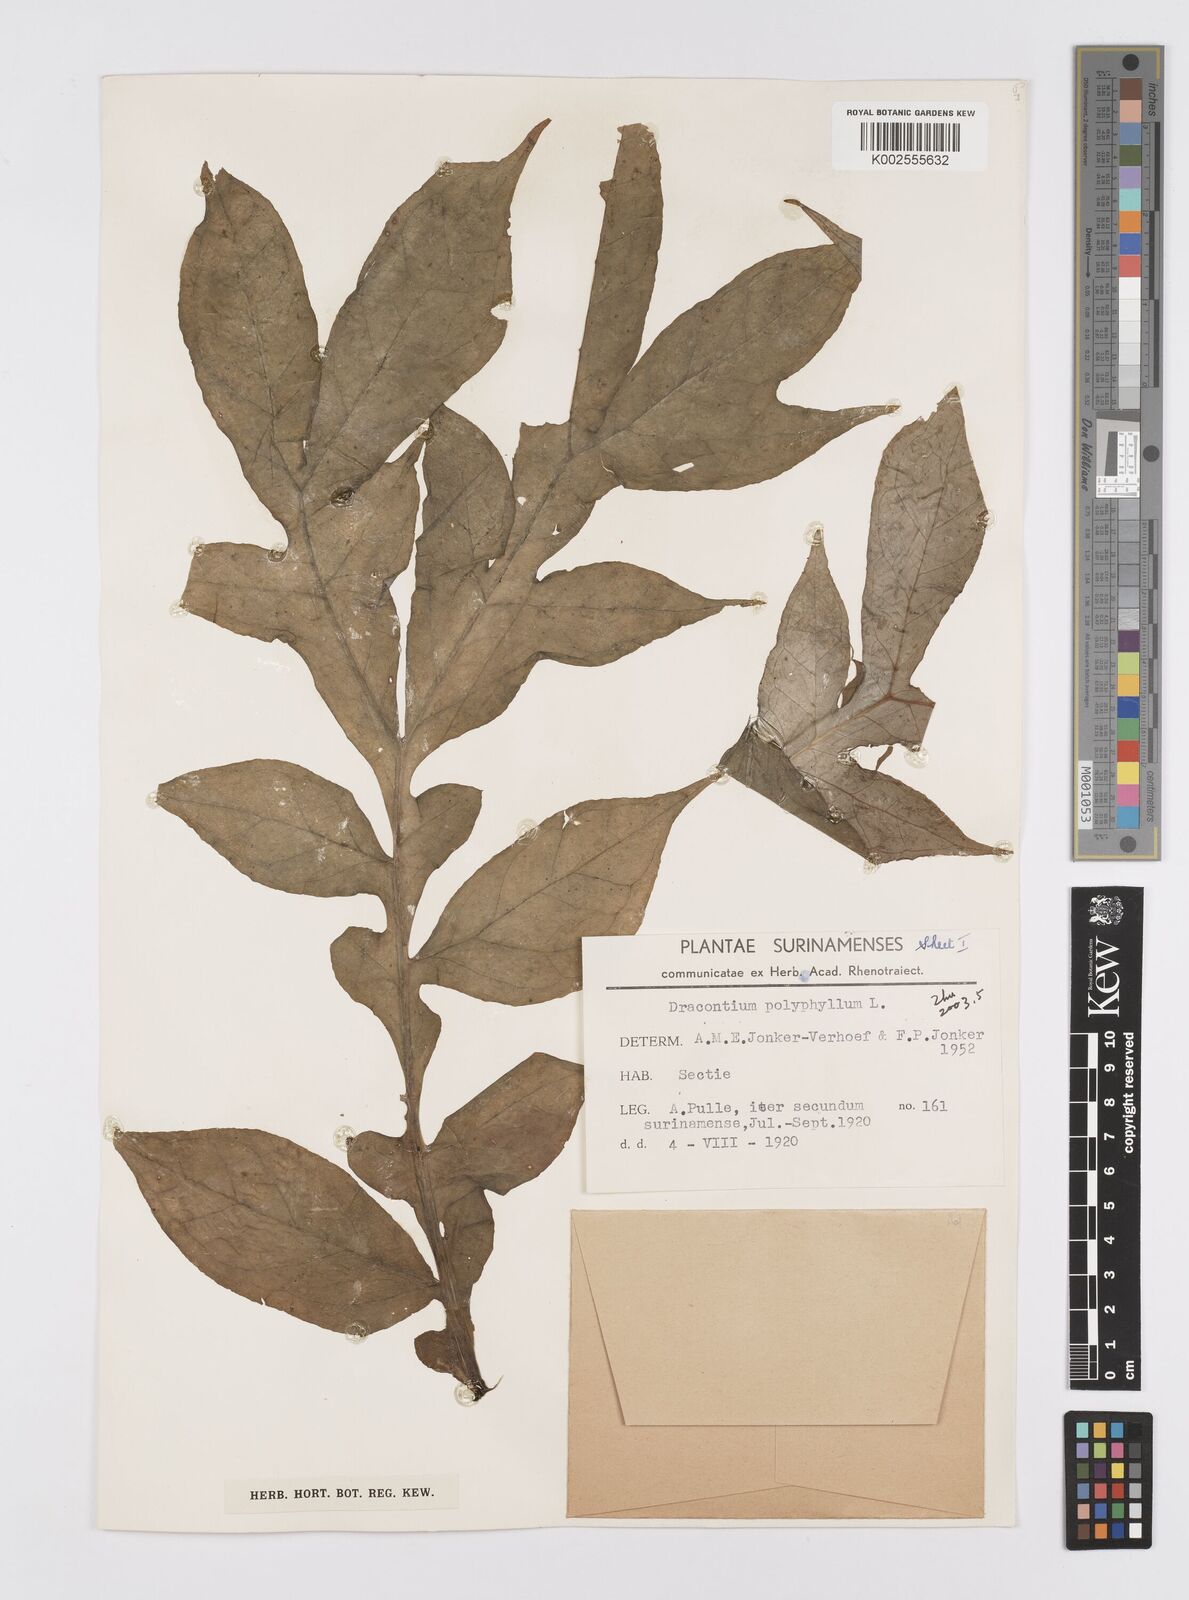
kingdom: Plantae
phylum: Tracheophyta
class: Liliopsida
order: Alismatales
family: Araceae
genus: Dracontium
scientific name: Dracontium polyphyllum
